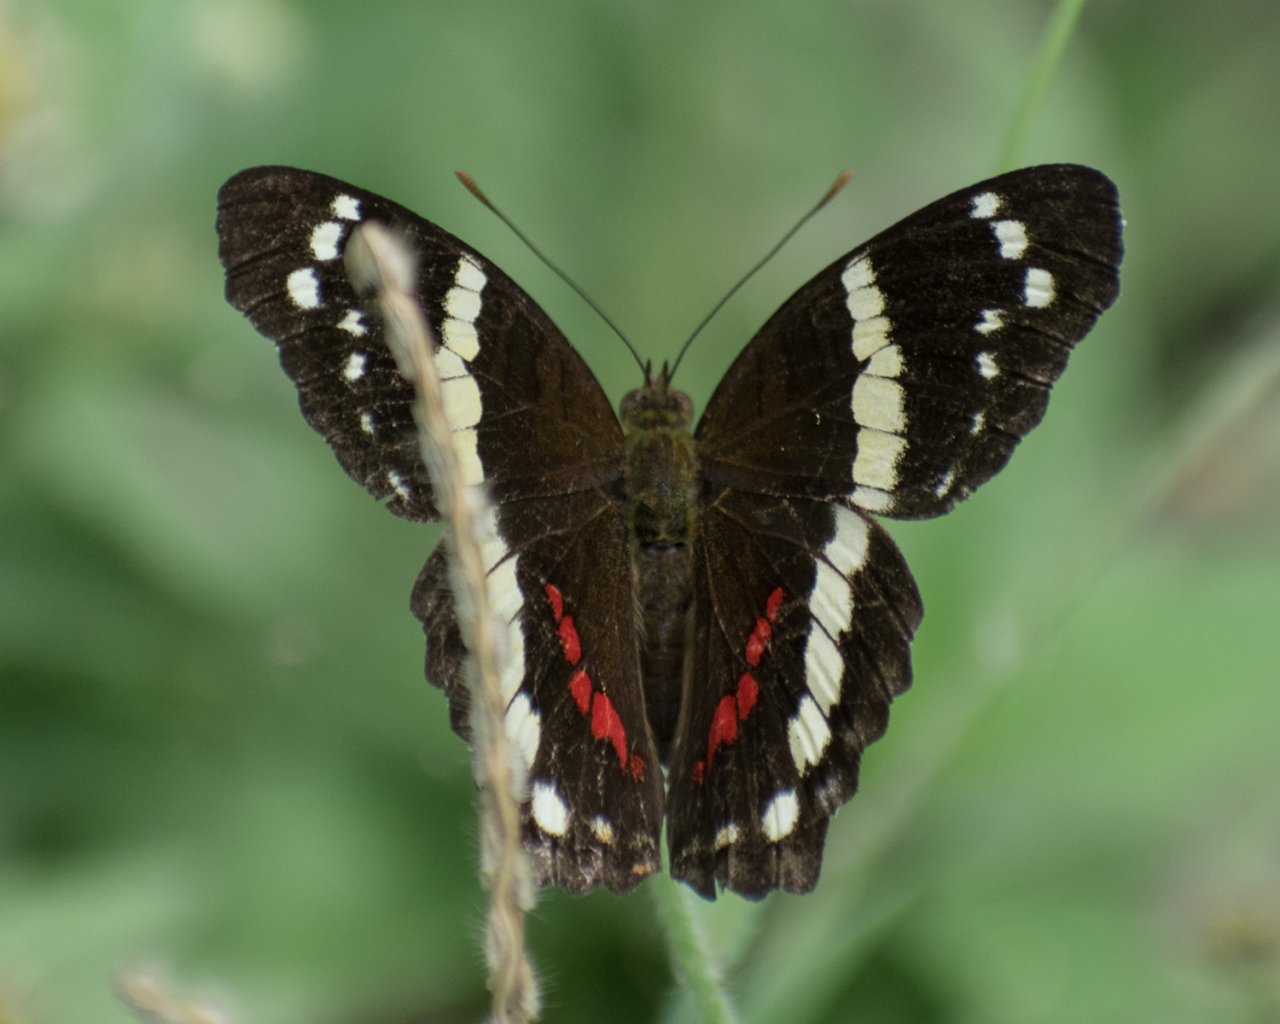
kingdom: Animalia
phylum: Arthropoda
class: Insecta
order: Lepidoptera
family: Nymphalidae
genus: Anartia
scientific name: Anartia fatima
